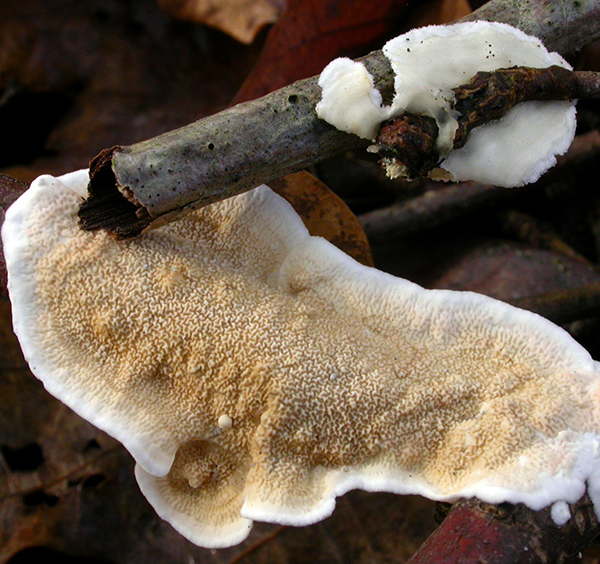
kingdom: Fungi
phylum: Basidiomycota
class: Agaricomycetes
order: Polyporales
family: Irpicaceae
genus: Byssomerulius
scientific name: Byssomerulius corium
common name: læder-åresvamp
